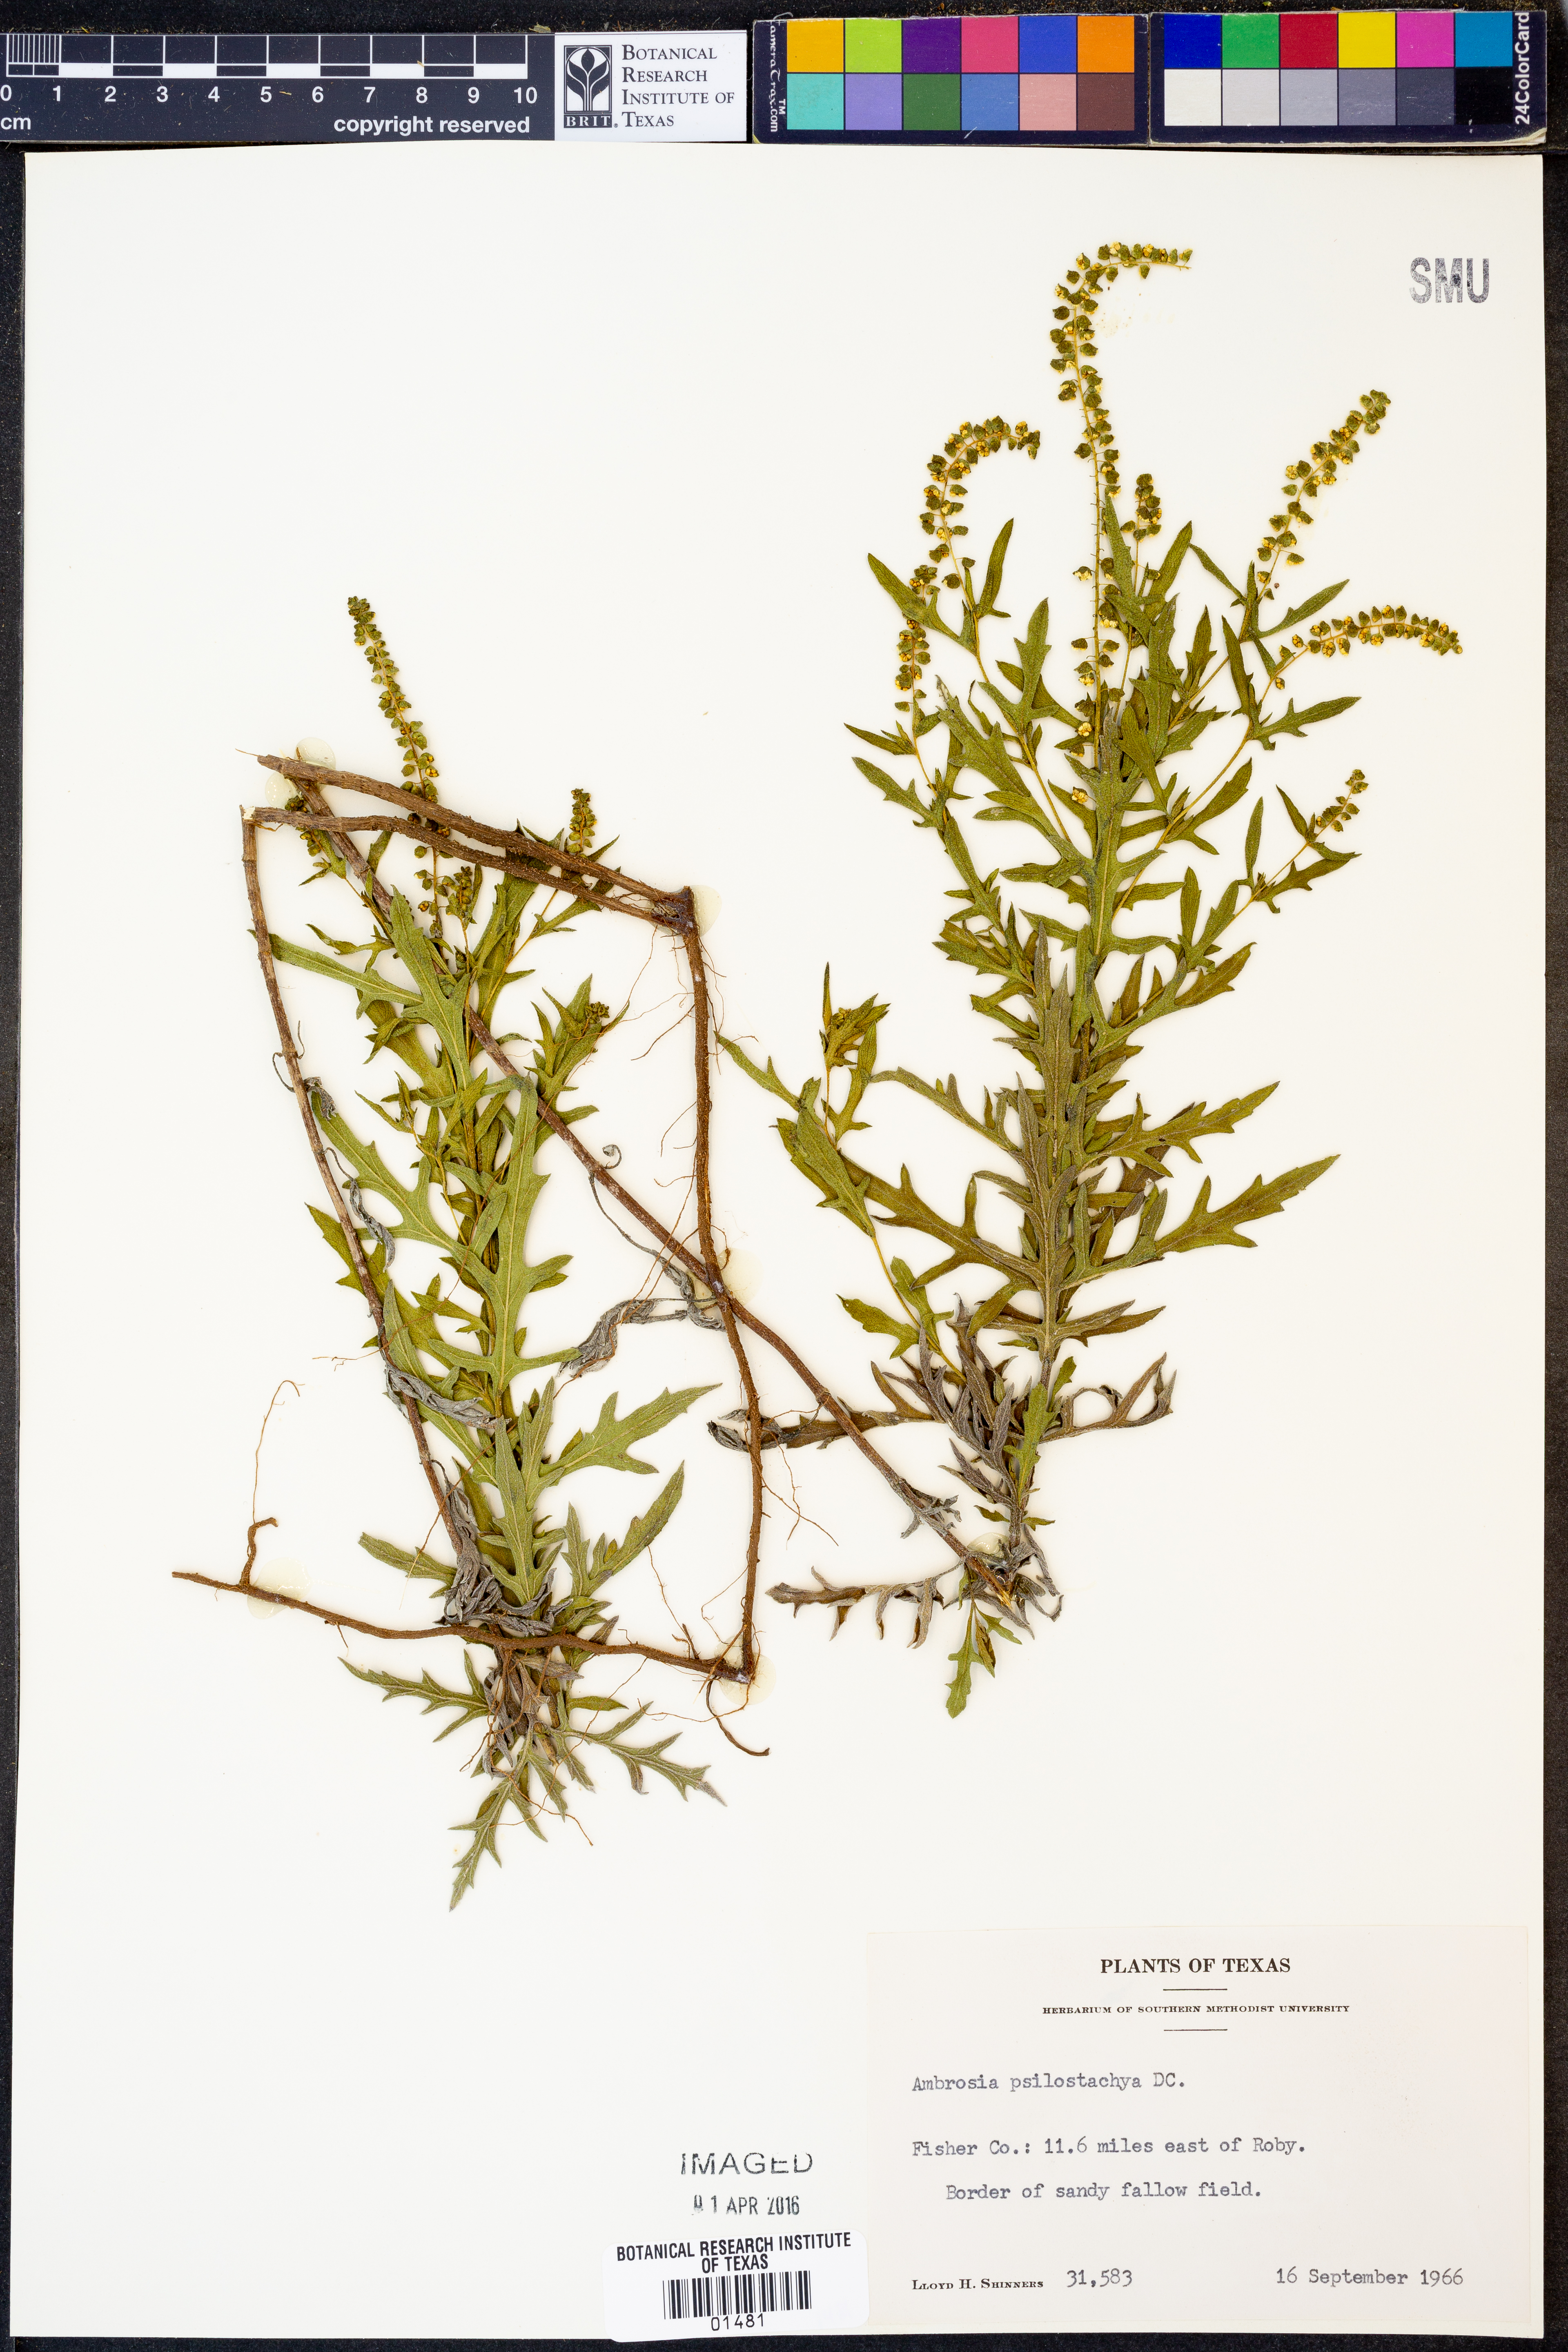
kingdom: Plantae
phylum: Tracheophyta
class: Magnoliopsida
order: Asterales
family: Asteraceae
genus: Ambrosia
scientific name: Ambrosia psilostachya
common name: Perennial ragweed
